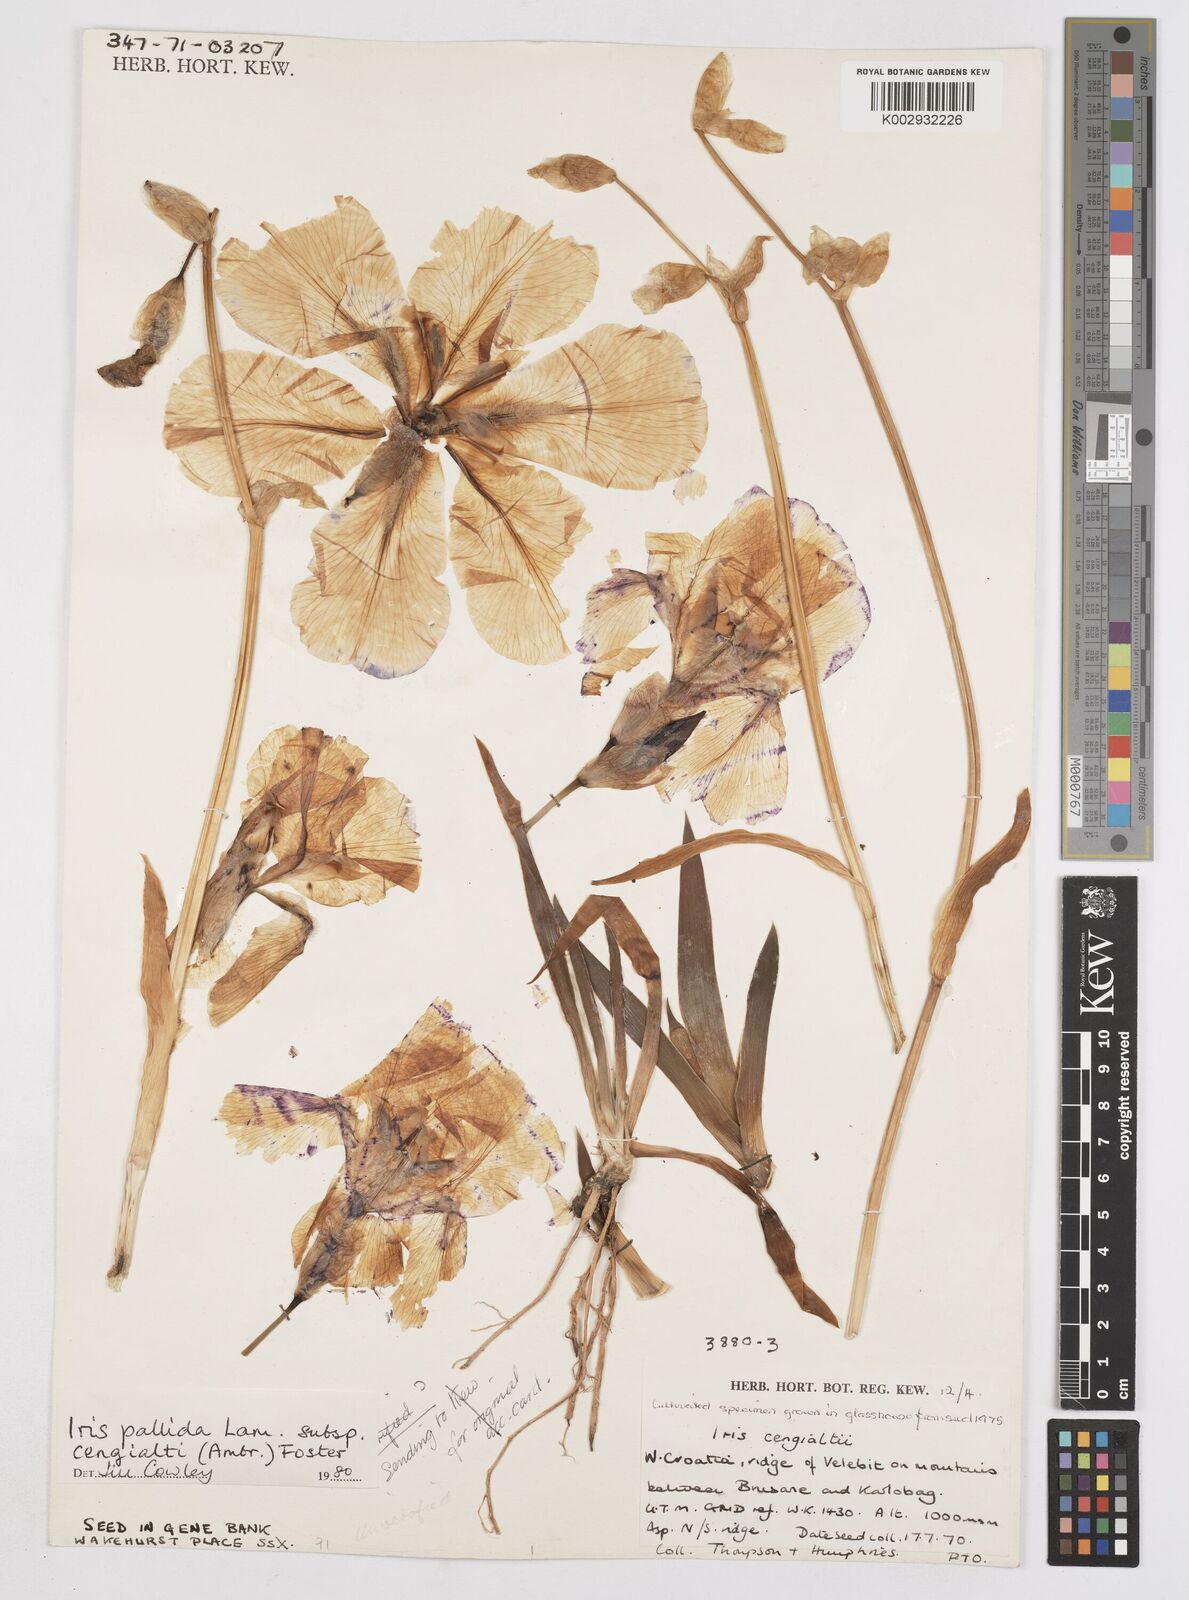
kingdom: Plantae
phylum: Tracheophyta
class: Liliopsida
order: Asparagales
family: Iridaceae
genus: Iris
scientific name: Iris pallida
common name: Sweet iris
